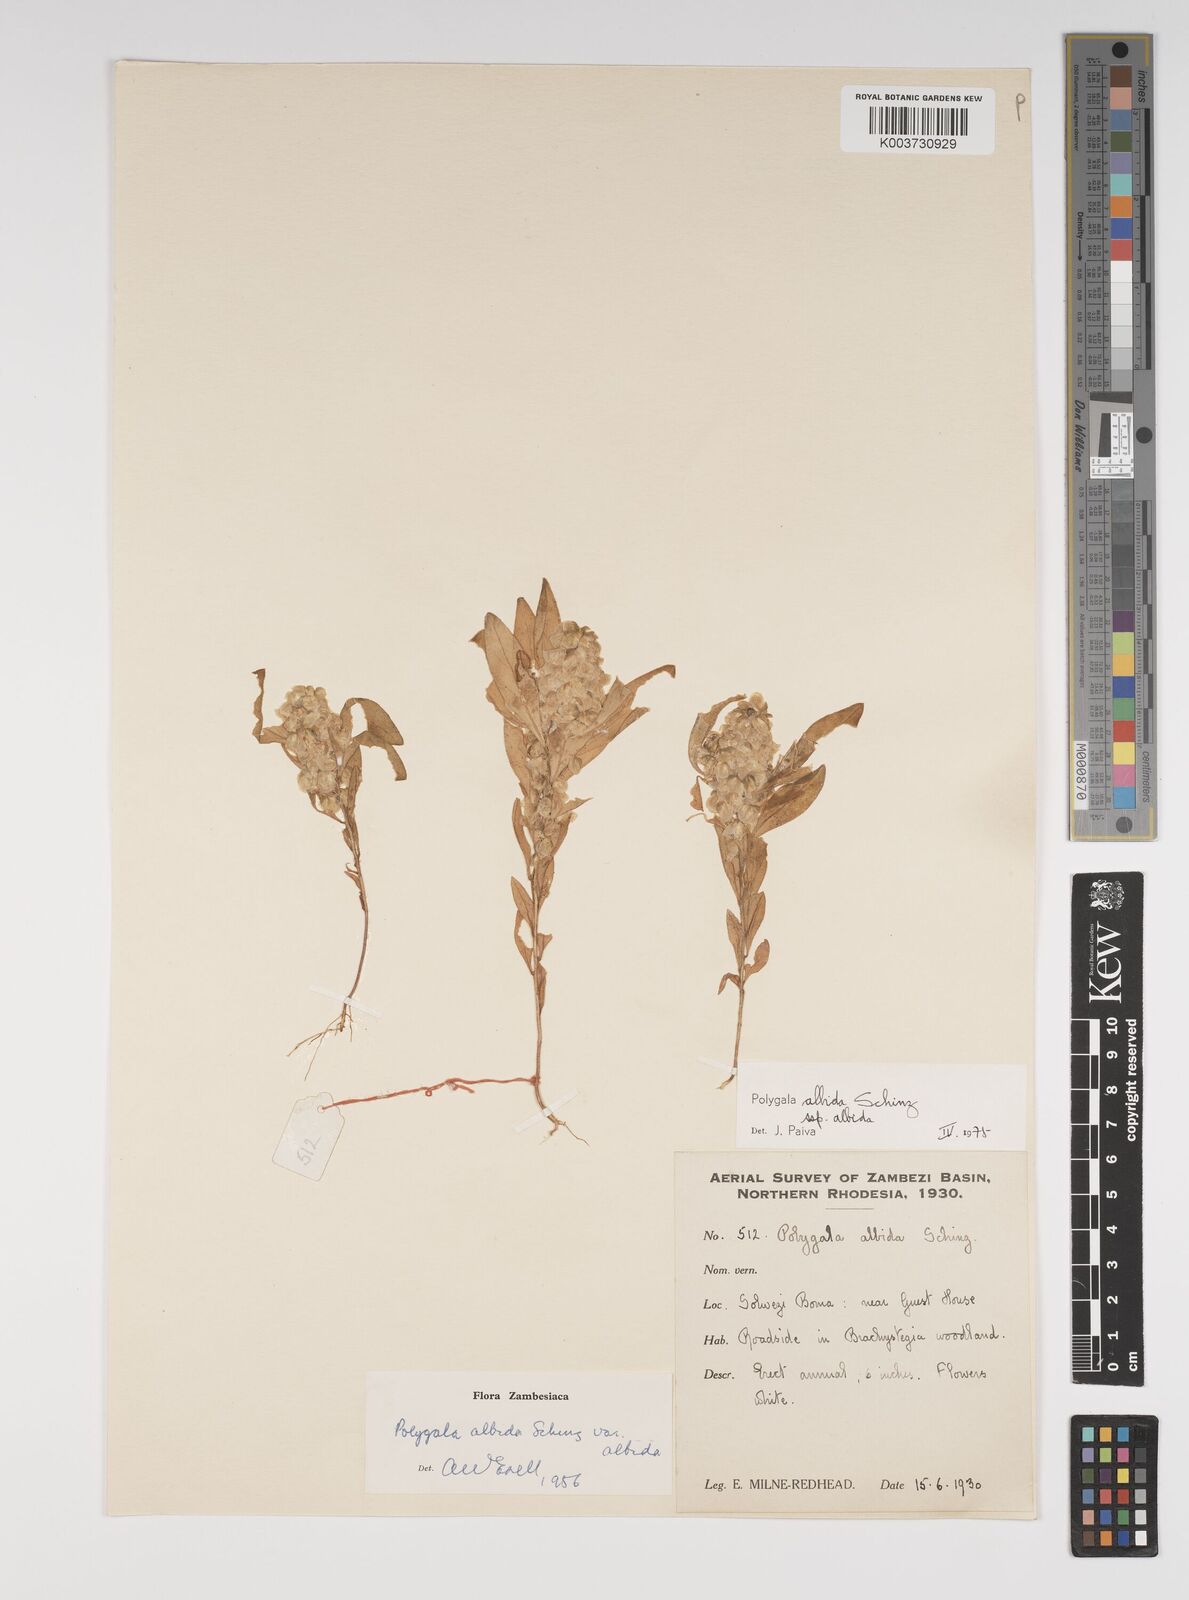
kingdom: Plantae
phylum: Tracheophyta
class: Magnoliopsida
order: Fabales
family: Polygalaceae
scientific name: Polygalaceae
